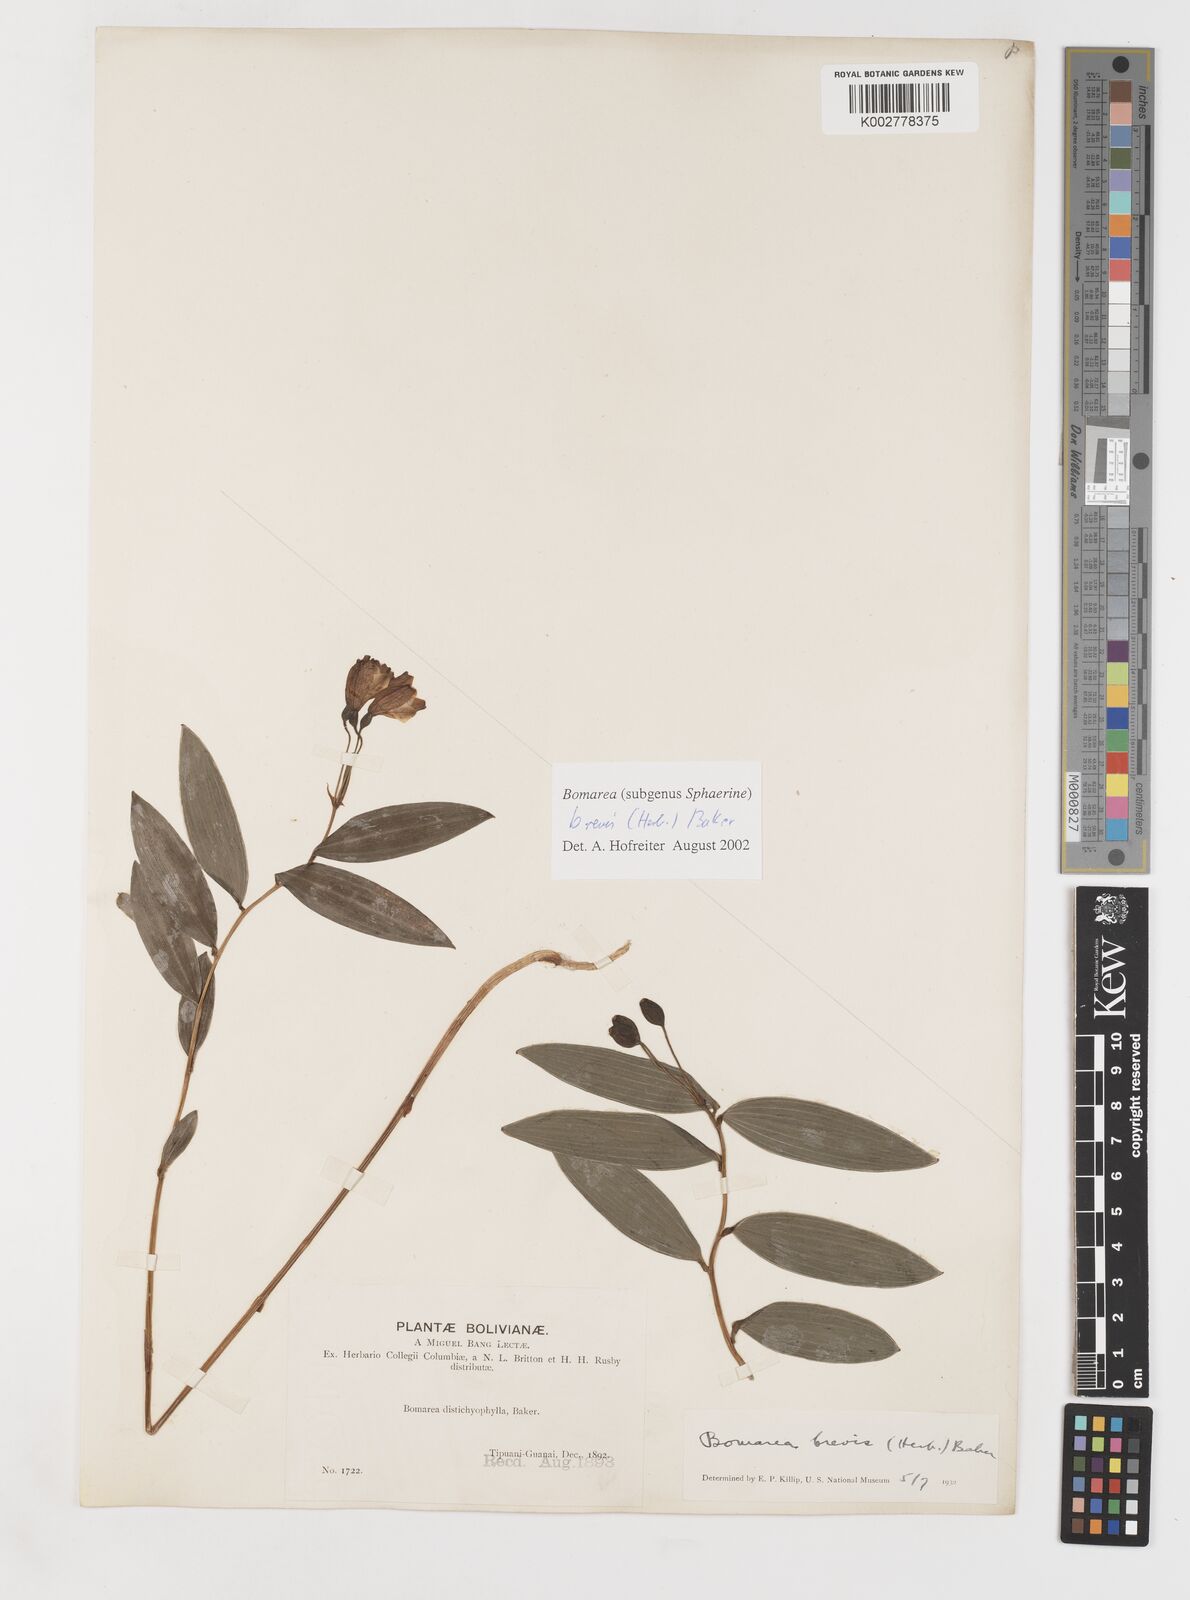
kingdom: Plantae
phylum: Tracheophyta
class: Liliopsida
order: Liliales
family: Alstroemeriaceae
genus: Bomarea
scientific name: Bomarea brevis
